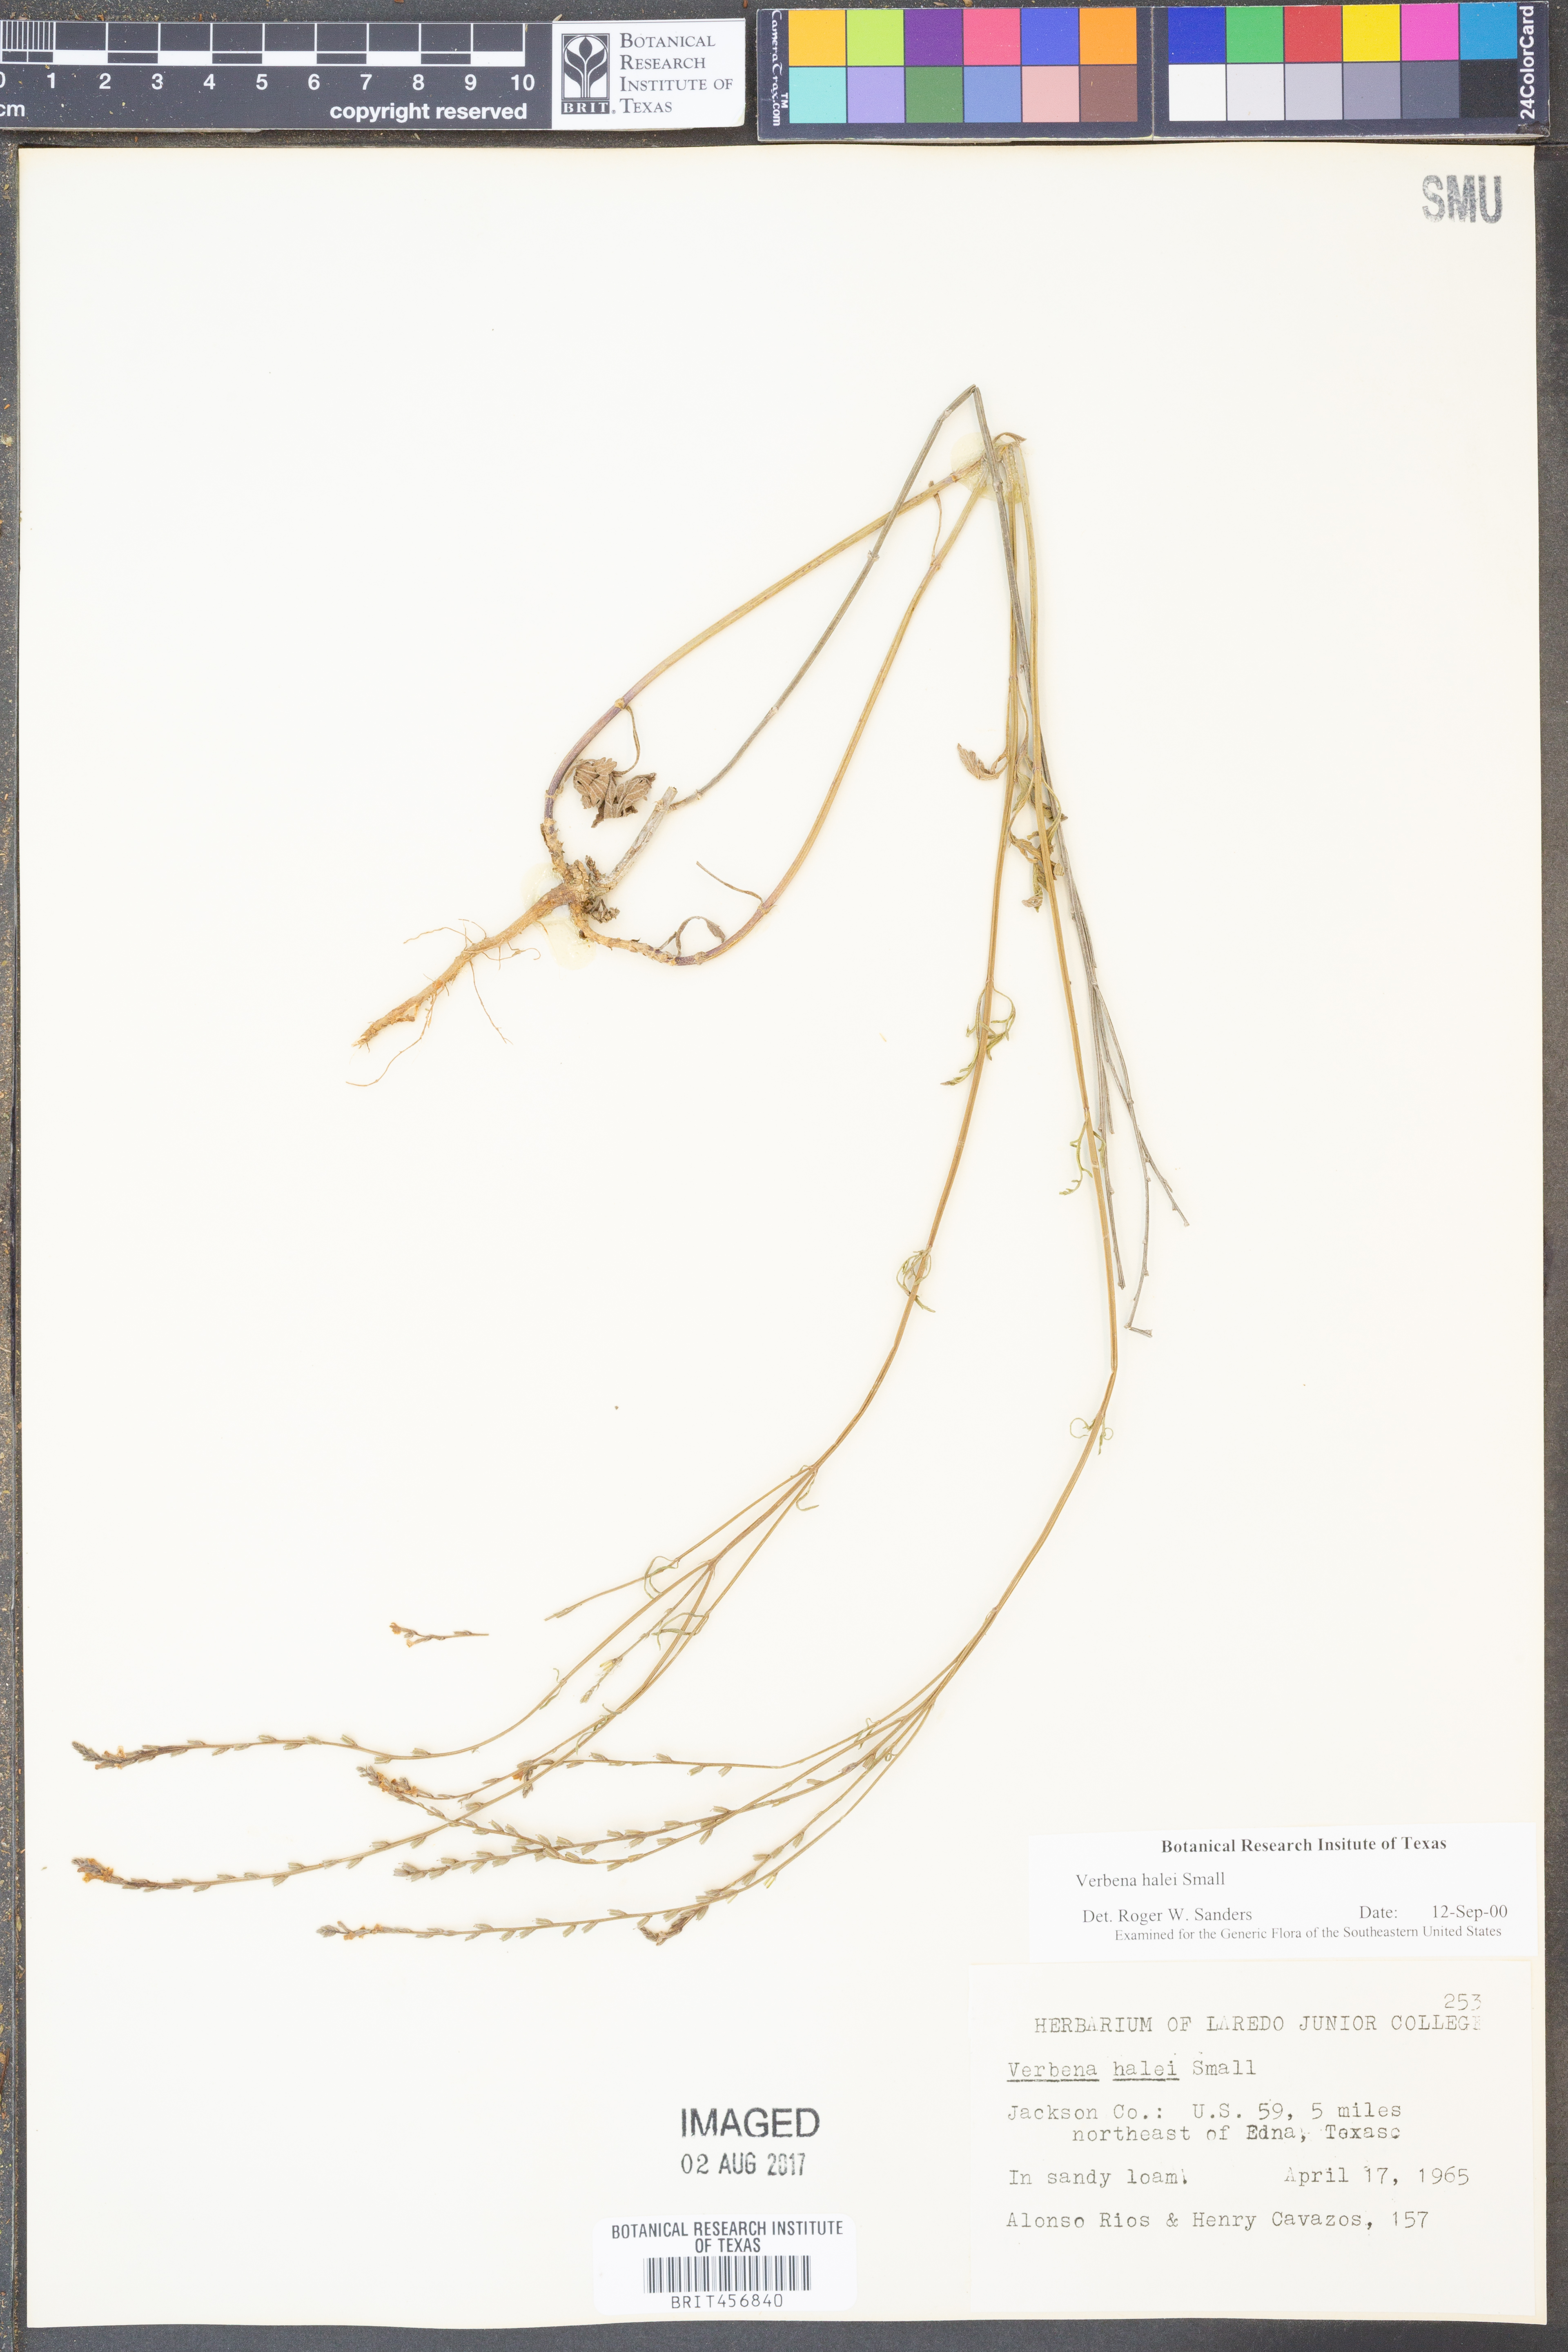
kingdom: Plantae
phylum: Tracheophyta
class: Magnoliopsida
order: Lamiales
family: Verbenaceae
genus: Verbena
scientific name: Verbena halei
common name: Texas vervain
